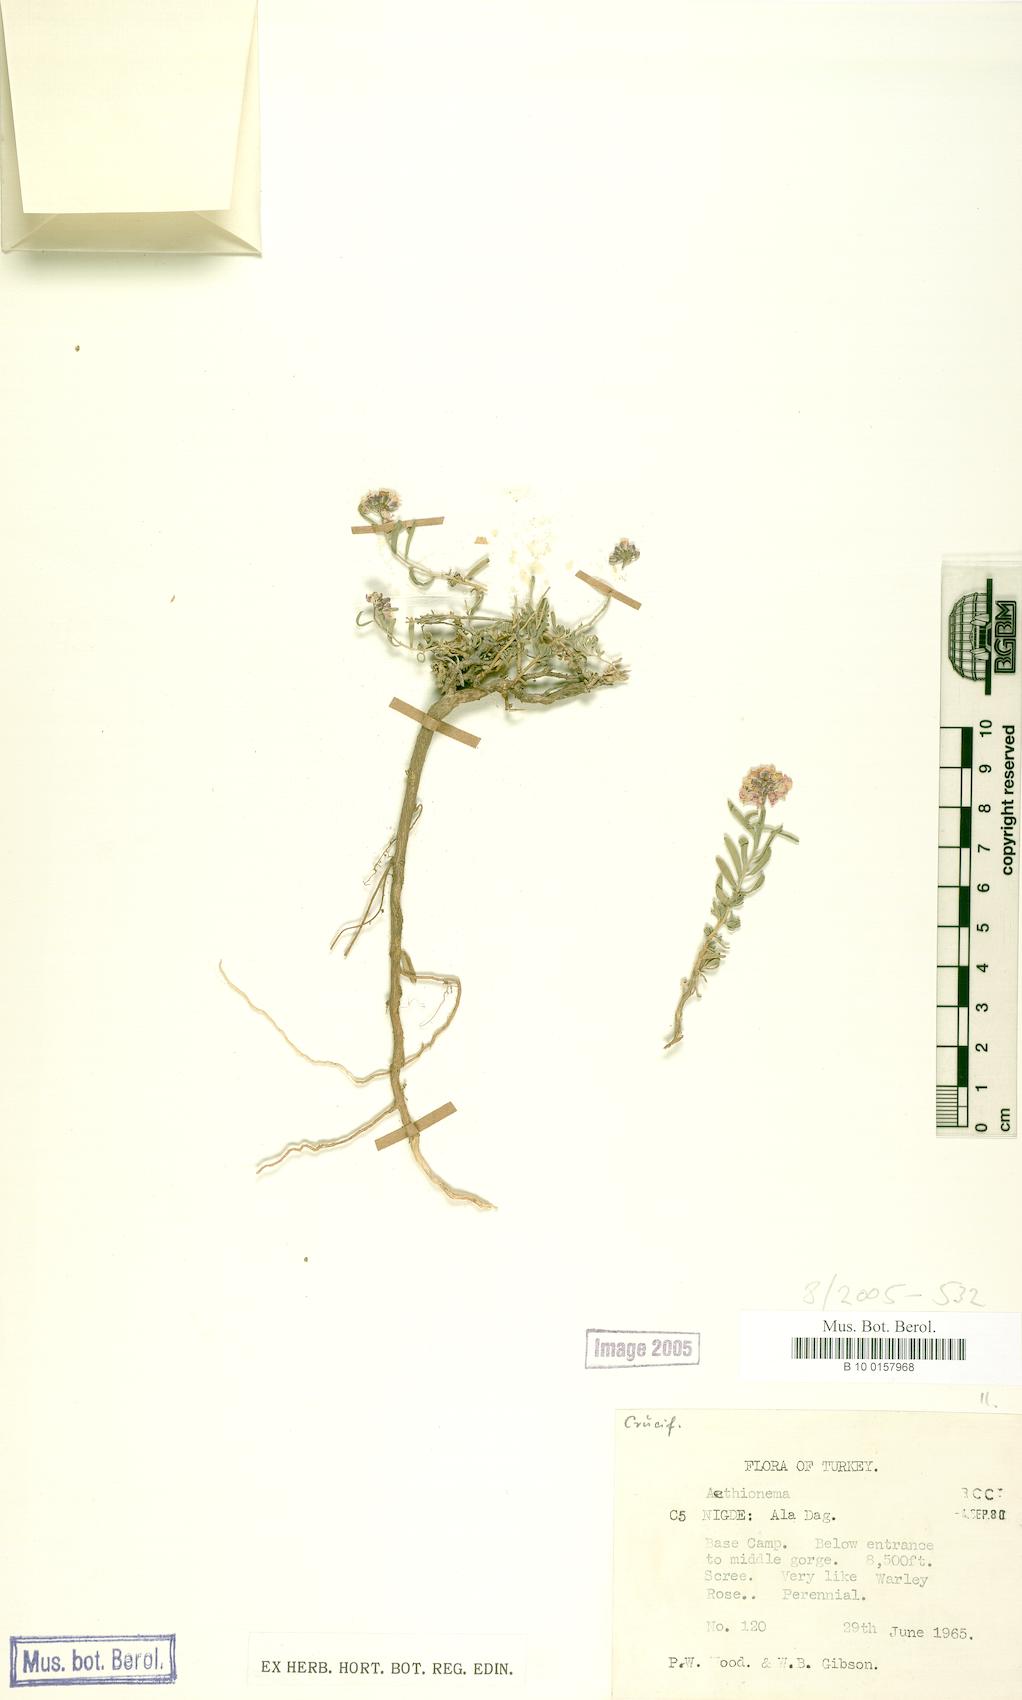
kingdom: Plantae
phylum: Tracheophyta
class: Magnoliopsida
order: Brassicales
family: Brassicaceae
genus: Aethionema
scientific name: Aethionema
